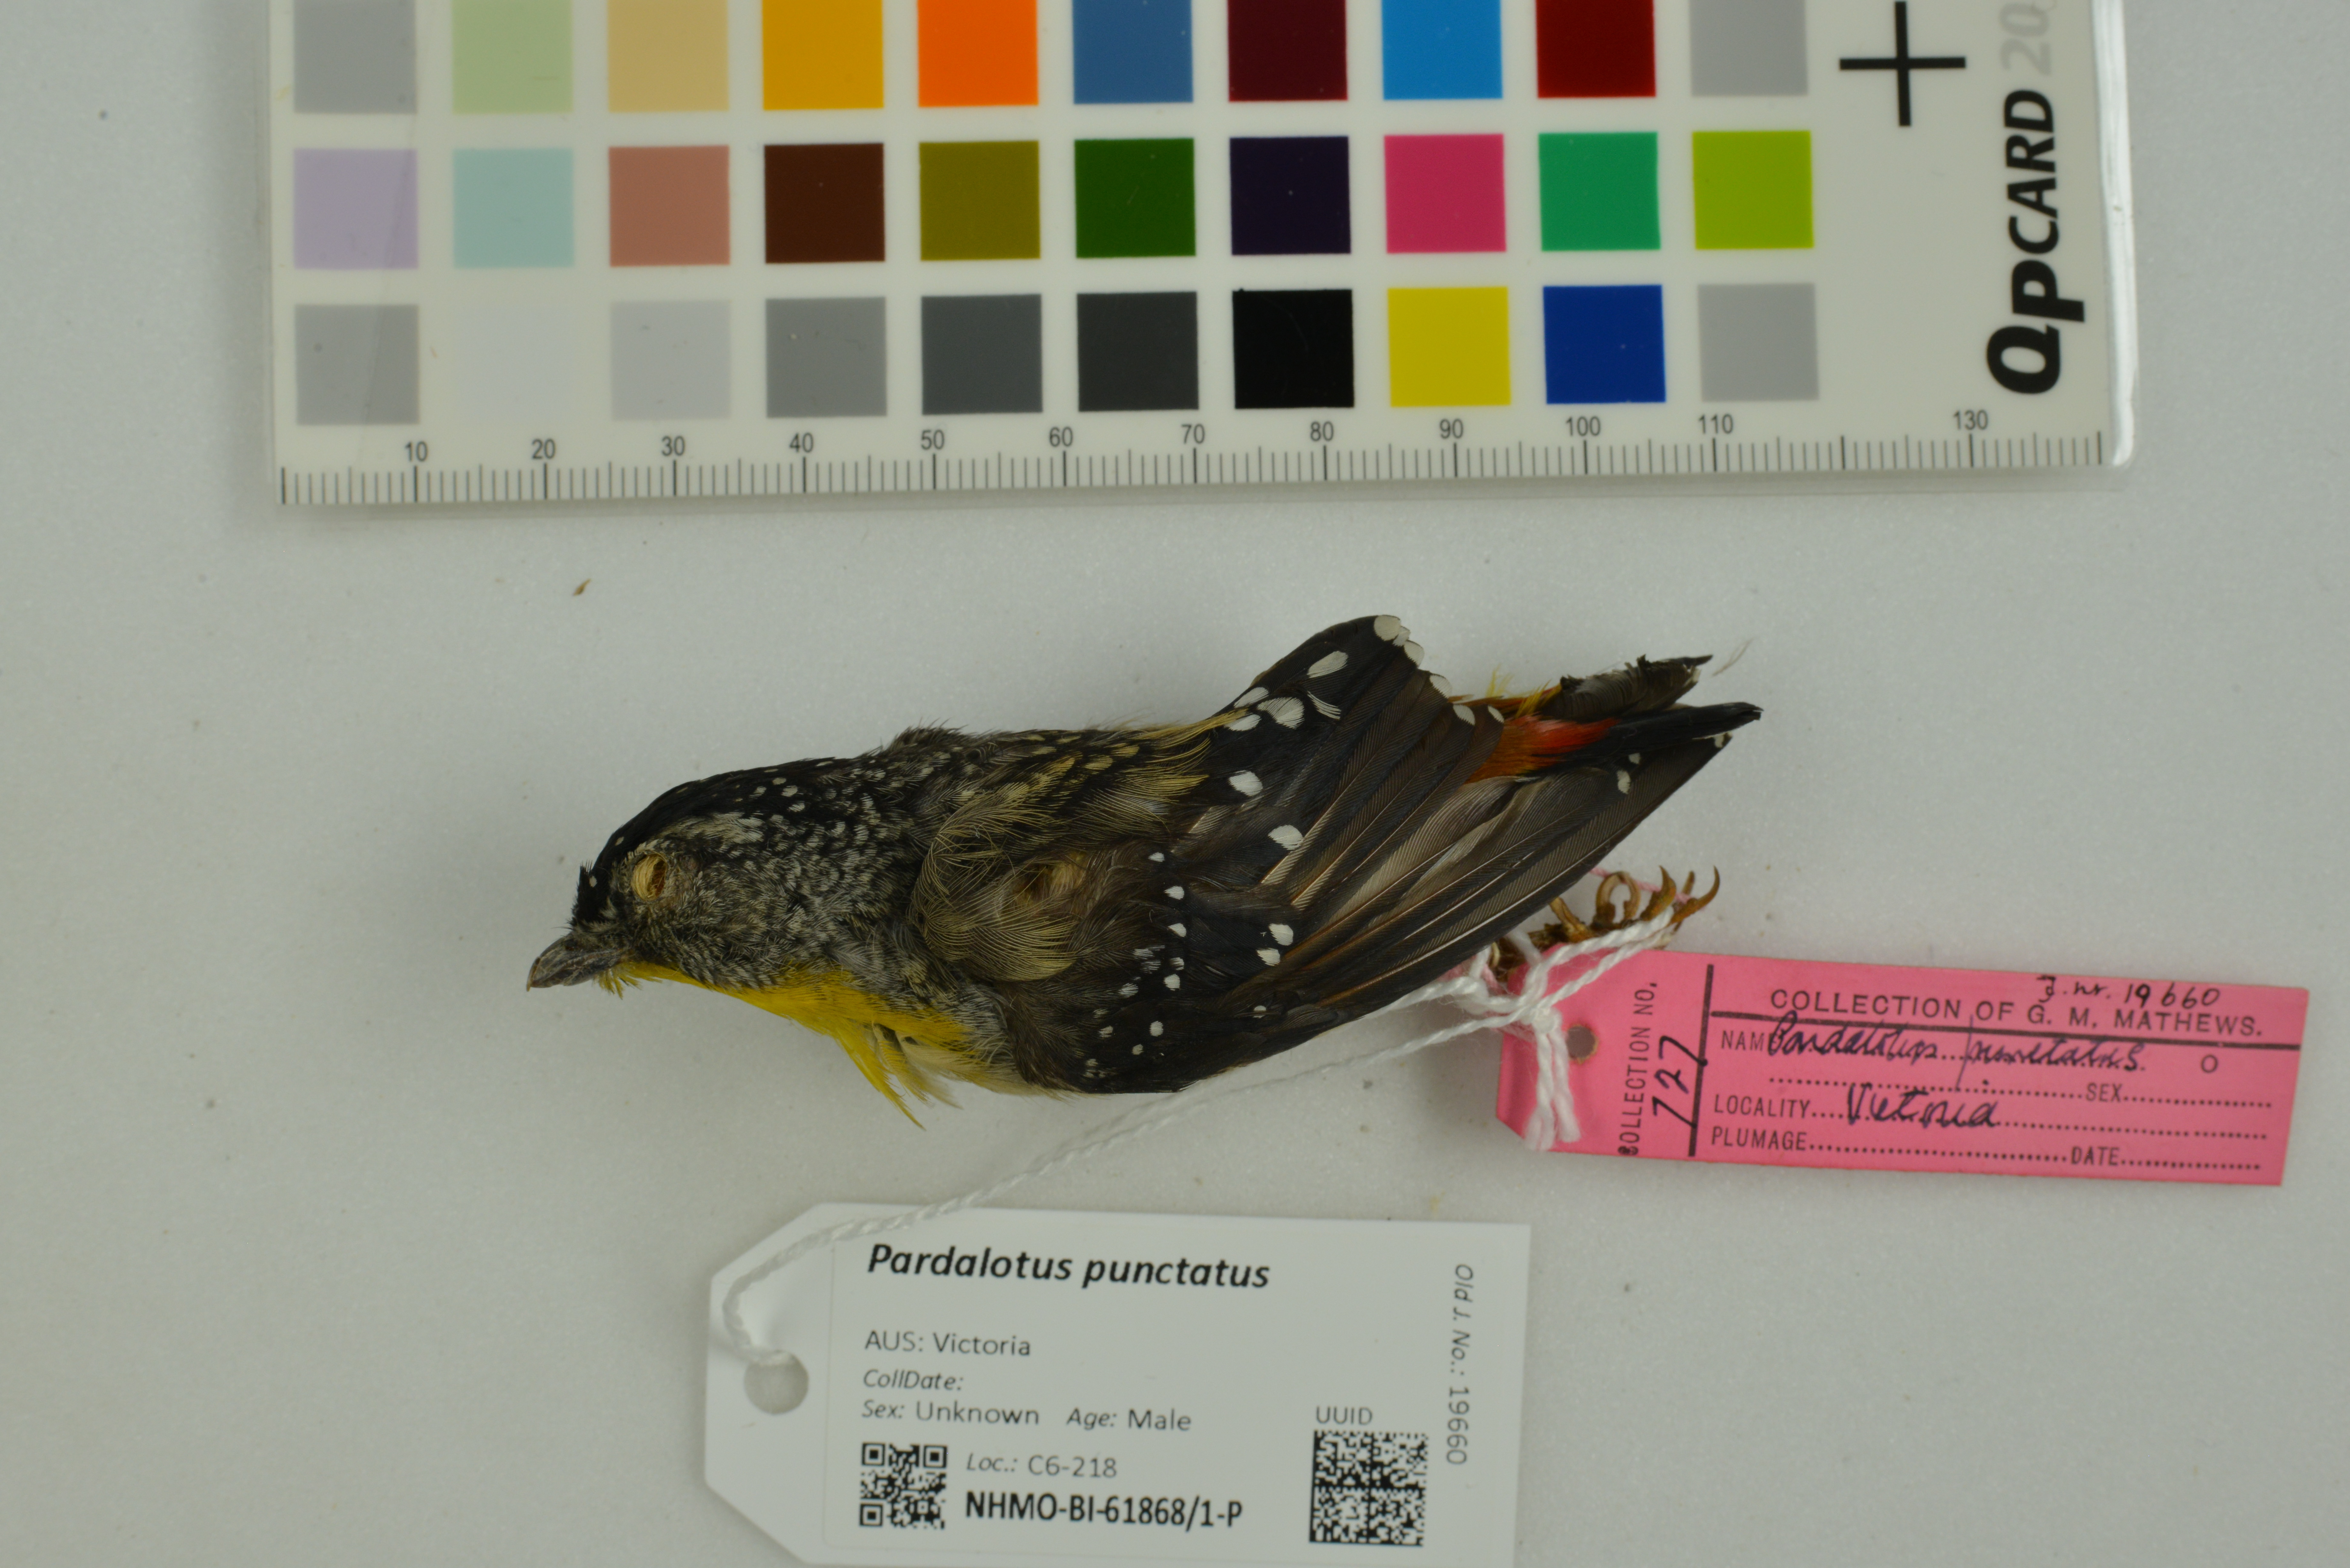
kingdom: Animalia
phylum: Chordata
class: Aves
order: Passeriformes
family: Pardalotidae
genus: Pardalotus
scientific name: Pardalotus punctatus
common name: Spotted pardalote
